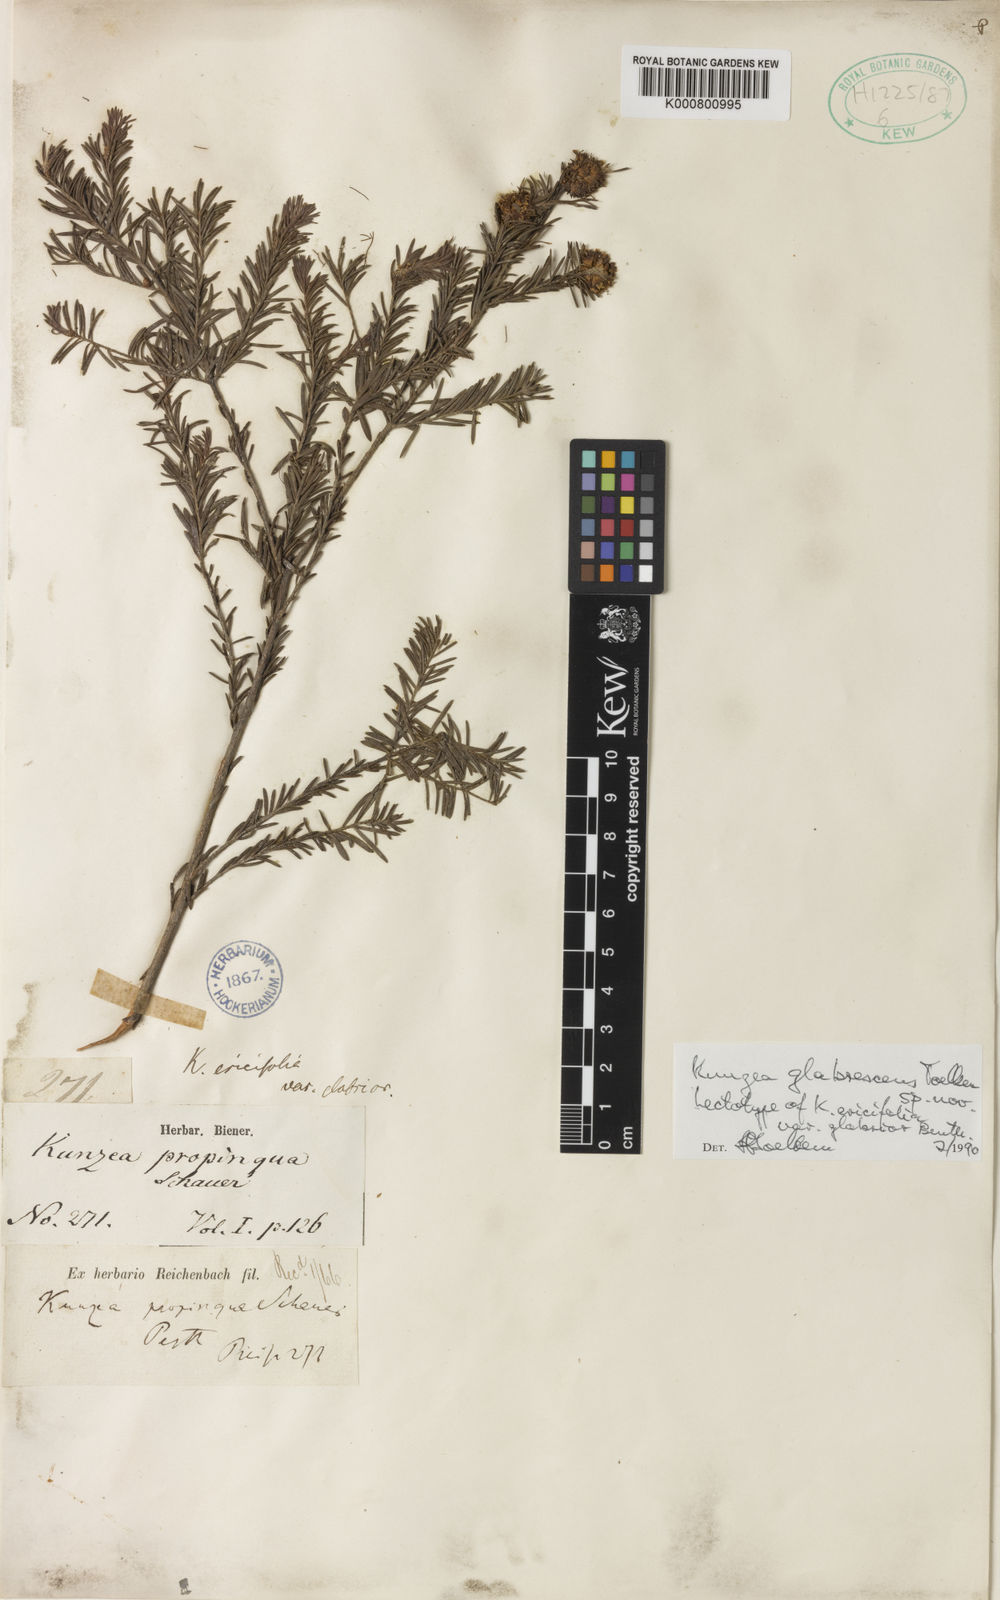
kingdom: Plantae
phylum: Tracheophyta
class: Magnoliopsida
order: Myrtales
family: Myrtaceae
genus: Kunzea
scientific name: Kunzea glabrescens
